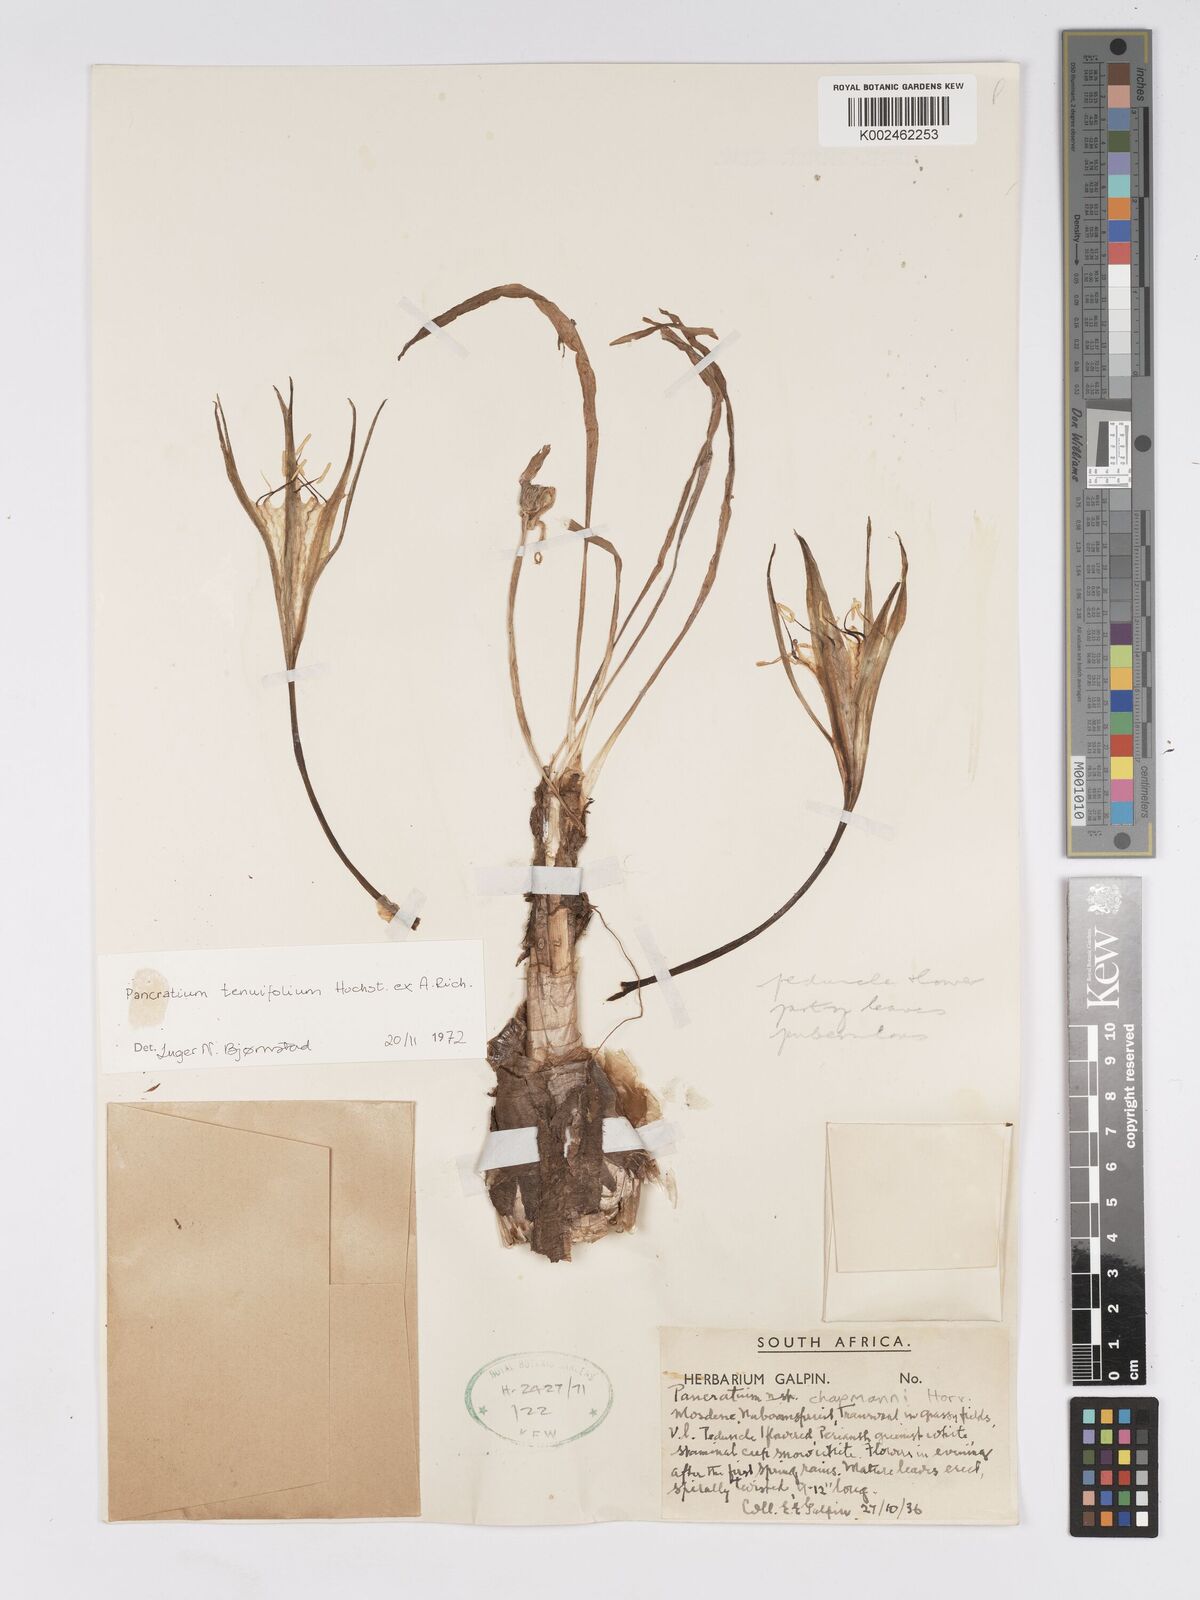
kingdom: Plantae
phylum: Tracheophyta
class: Liliopsida
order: Asparagales
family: Amaryllidaceae
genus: Pancratium
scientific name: Pancratium tenuifolium
